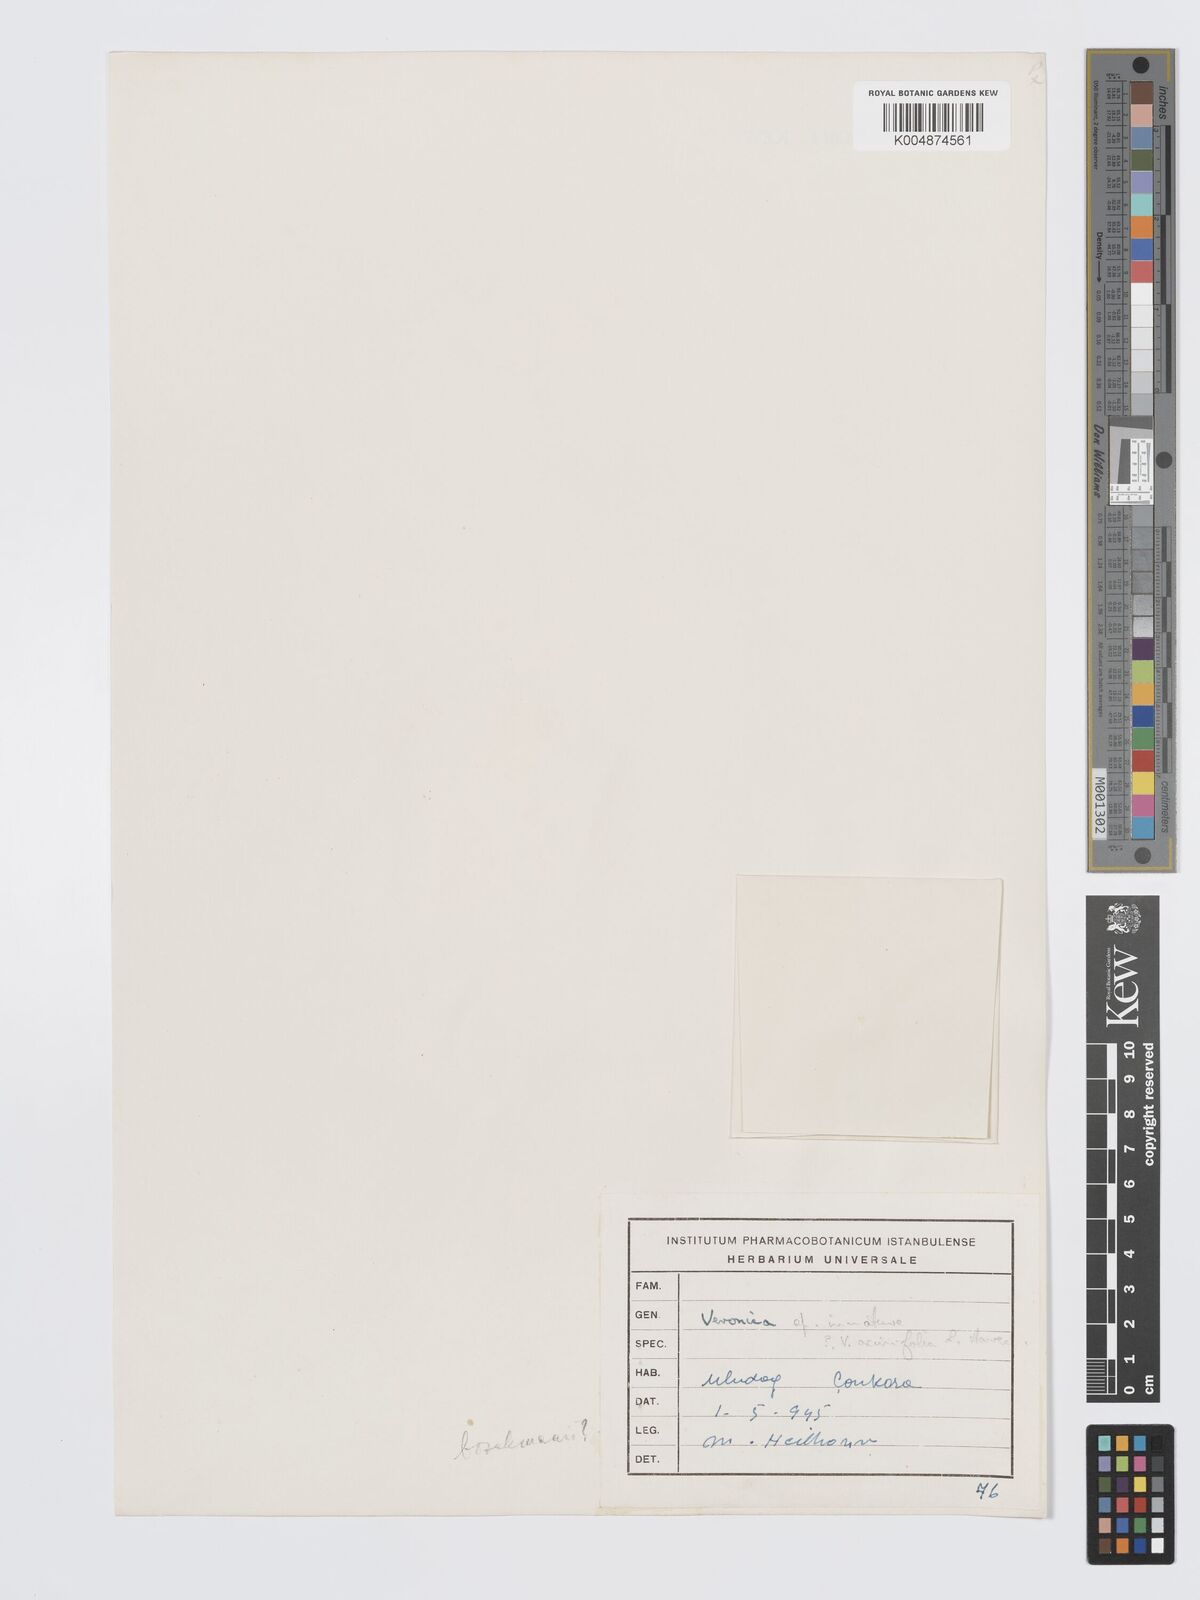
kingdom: Plantae
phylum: Tracheophyta
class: Magnoliopsida
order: Lamiales
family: Plantaginaceae
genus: Veronica
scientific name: Veronica
